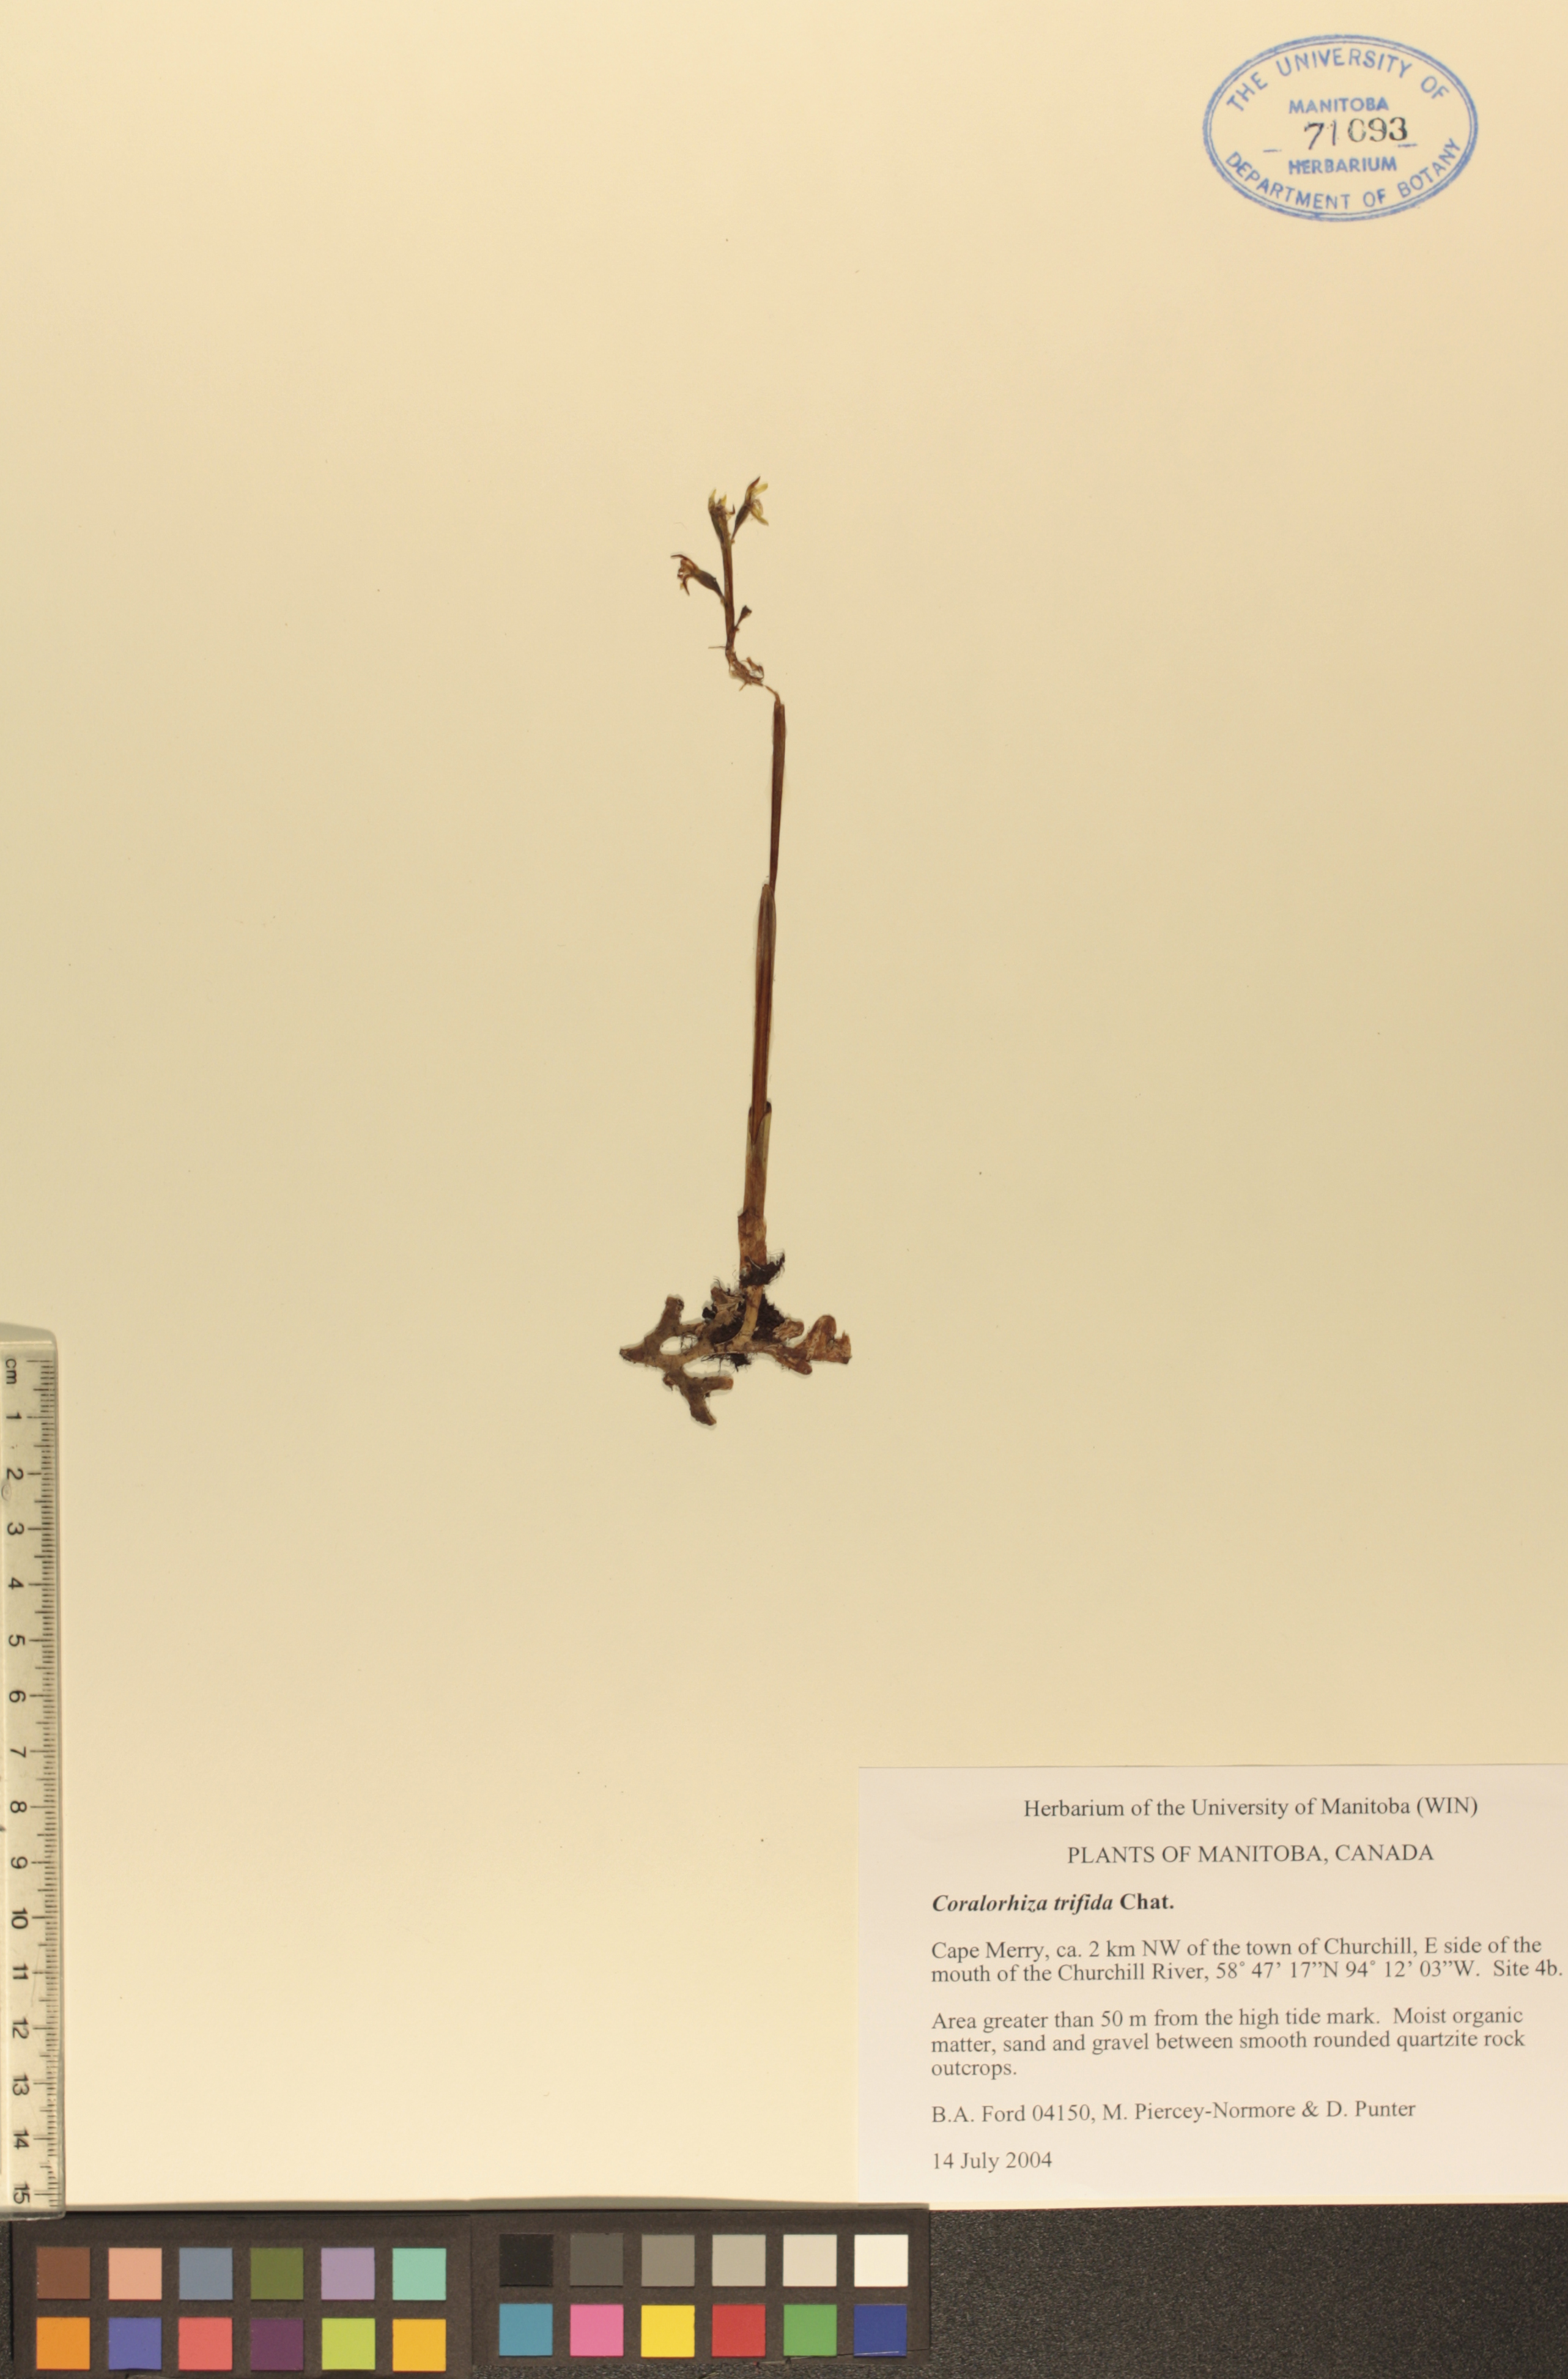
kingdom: Plantae
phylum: Tracheophyta
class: Liliopsida
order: Asparagales
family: Orchidaceae
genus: Corallorhiza
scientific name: Corallorhiza trifida
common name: Yellow coralroot
